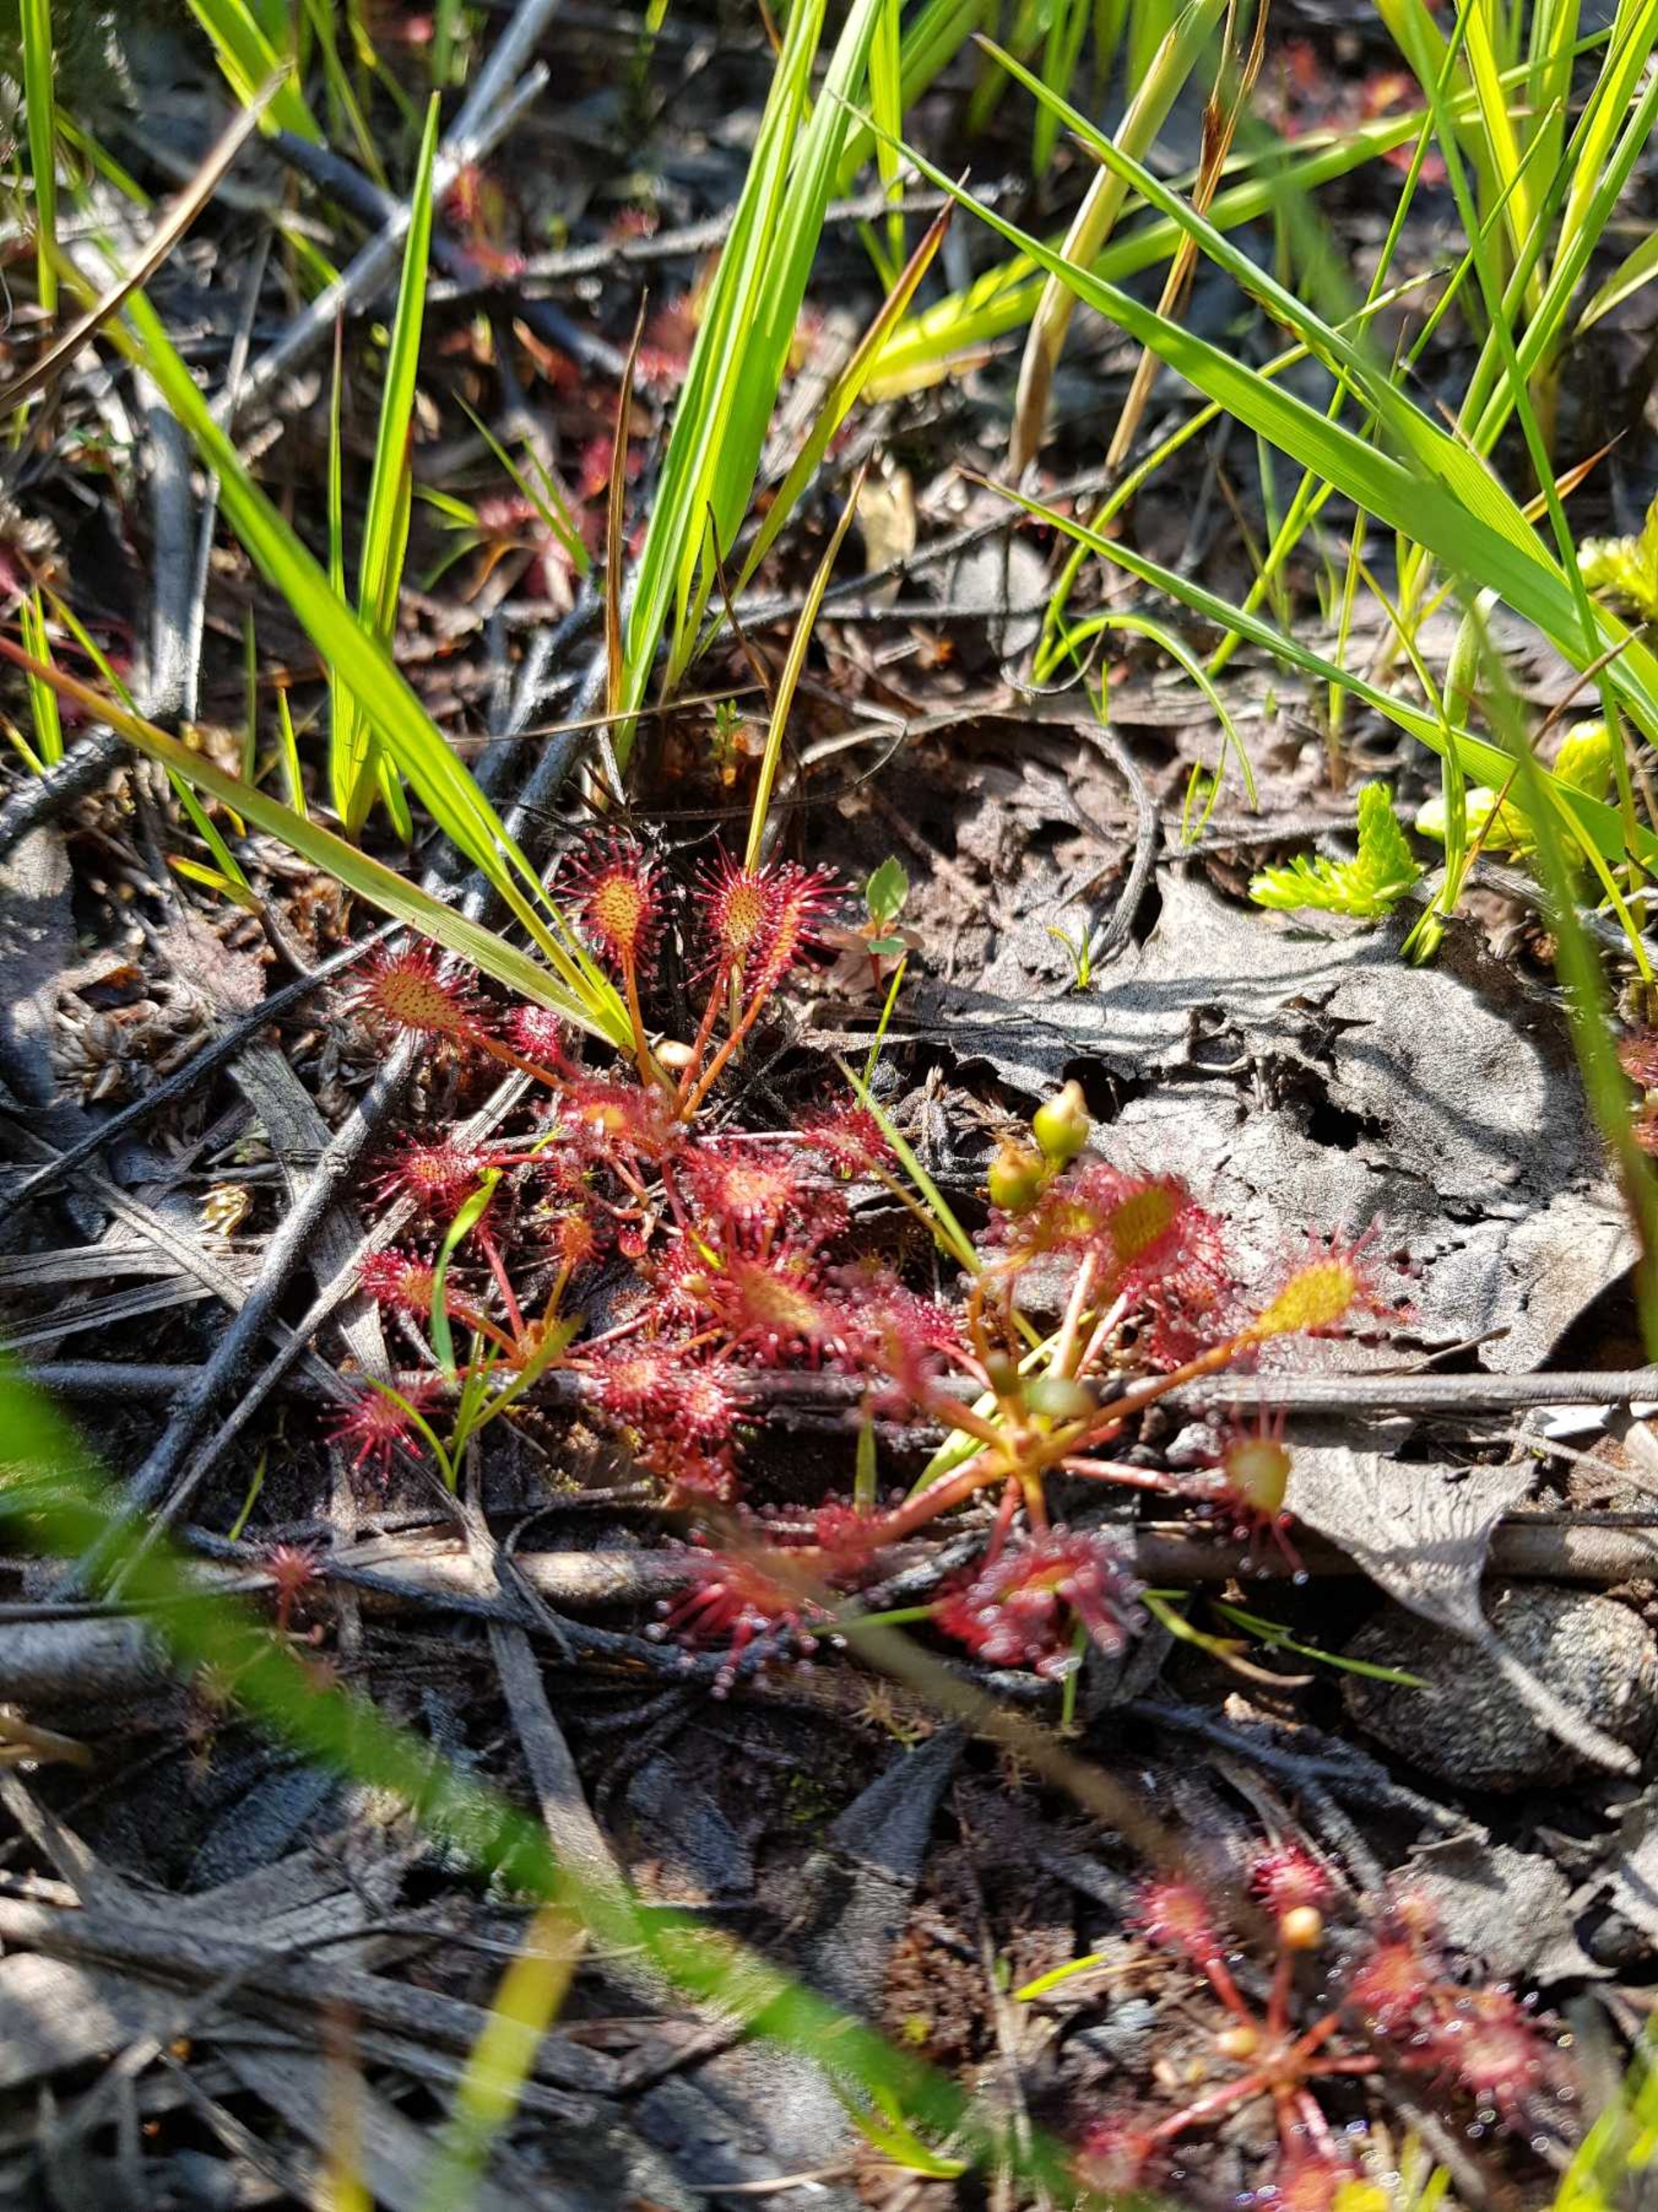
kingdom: Plantae
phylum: Tracheophyta
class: Magnoliopsida
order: Caryophyllales
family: Droseraceae
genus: Drosera
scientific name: Drosera intermedia
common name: Liden soldug
